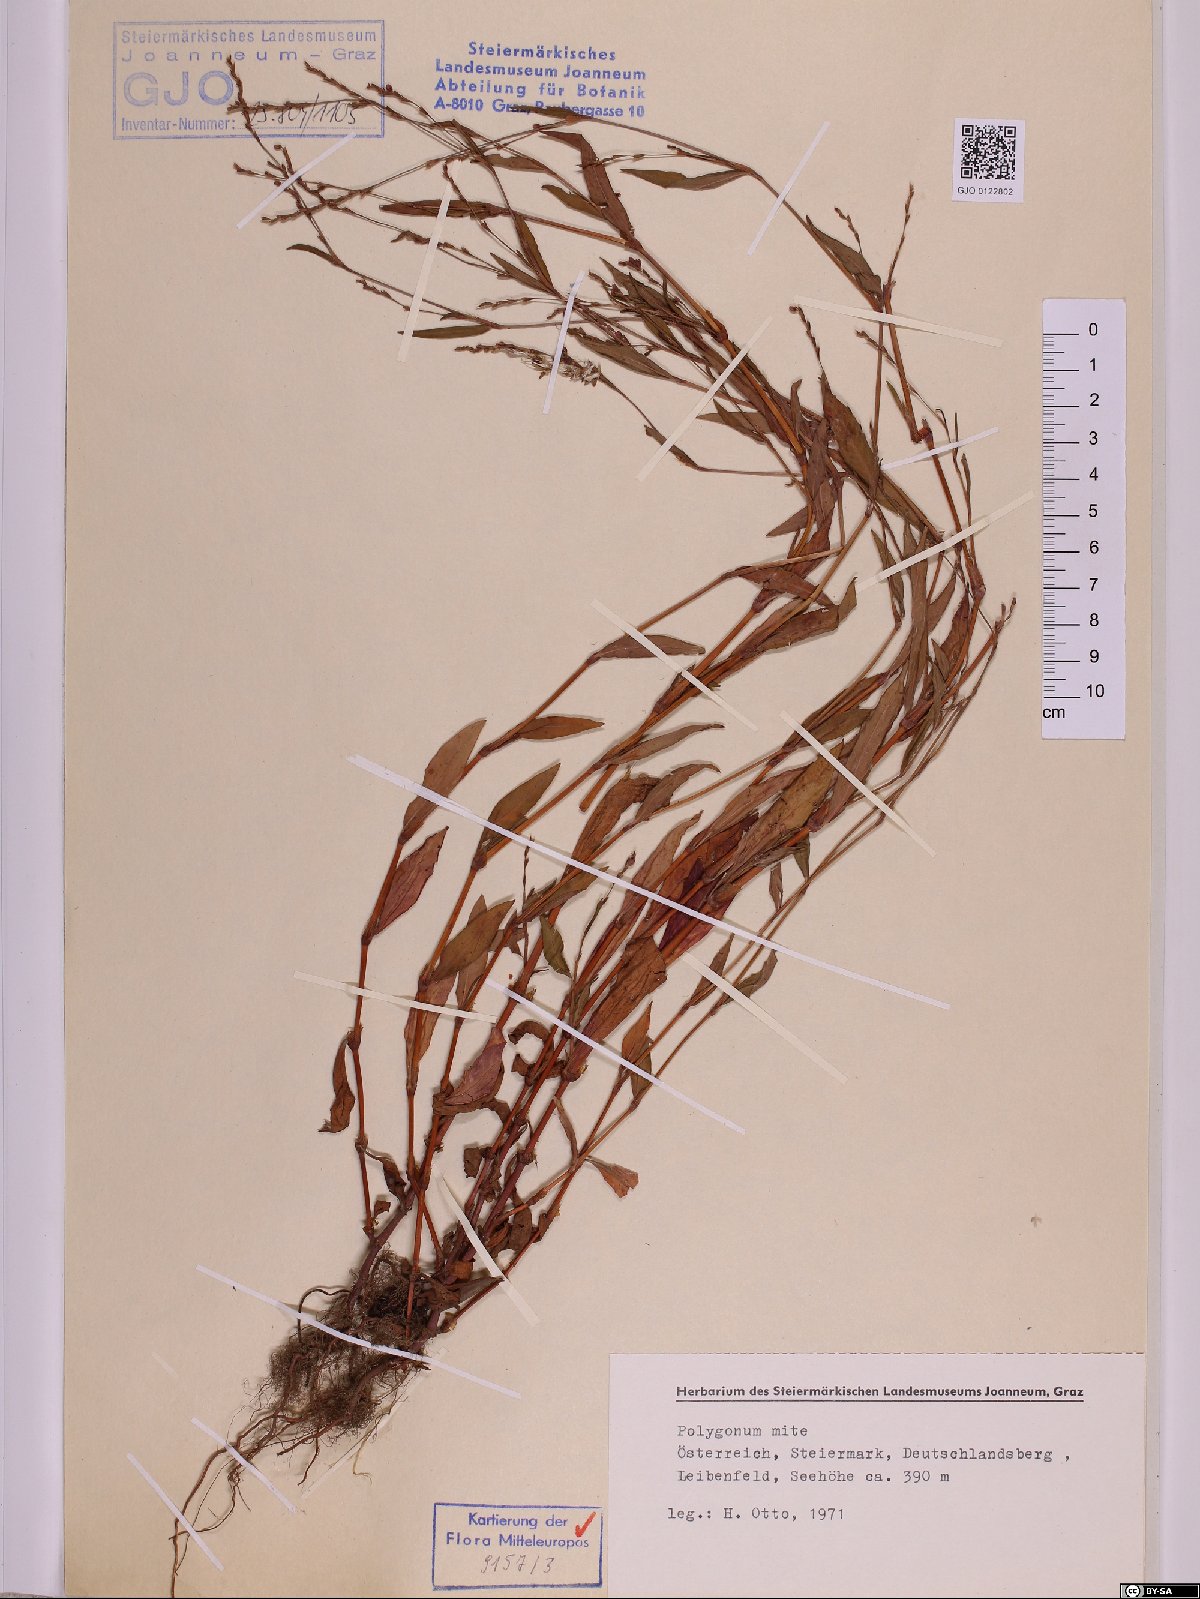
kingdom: Plantae
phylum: Tracheophyta
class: Magnoliopsida
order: Caryophyllales
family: Polygonaceae
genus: Persicaria
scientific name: Persicaria mitis
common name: Tasteless water-pepper
